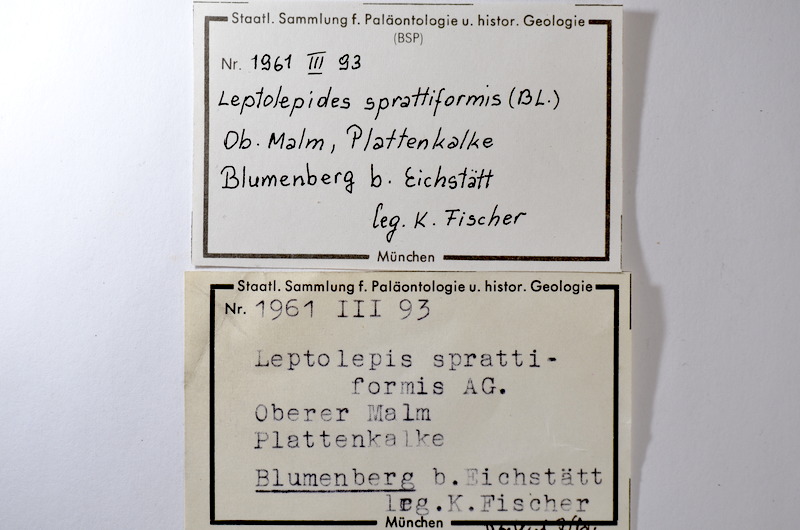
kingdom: Animalia
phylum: Chordata
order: Salmoniformes
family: Orthogonikleithridae
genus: Leptolepides
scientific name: Leptolepides sprattiformis
